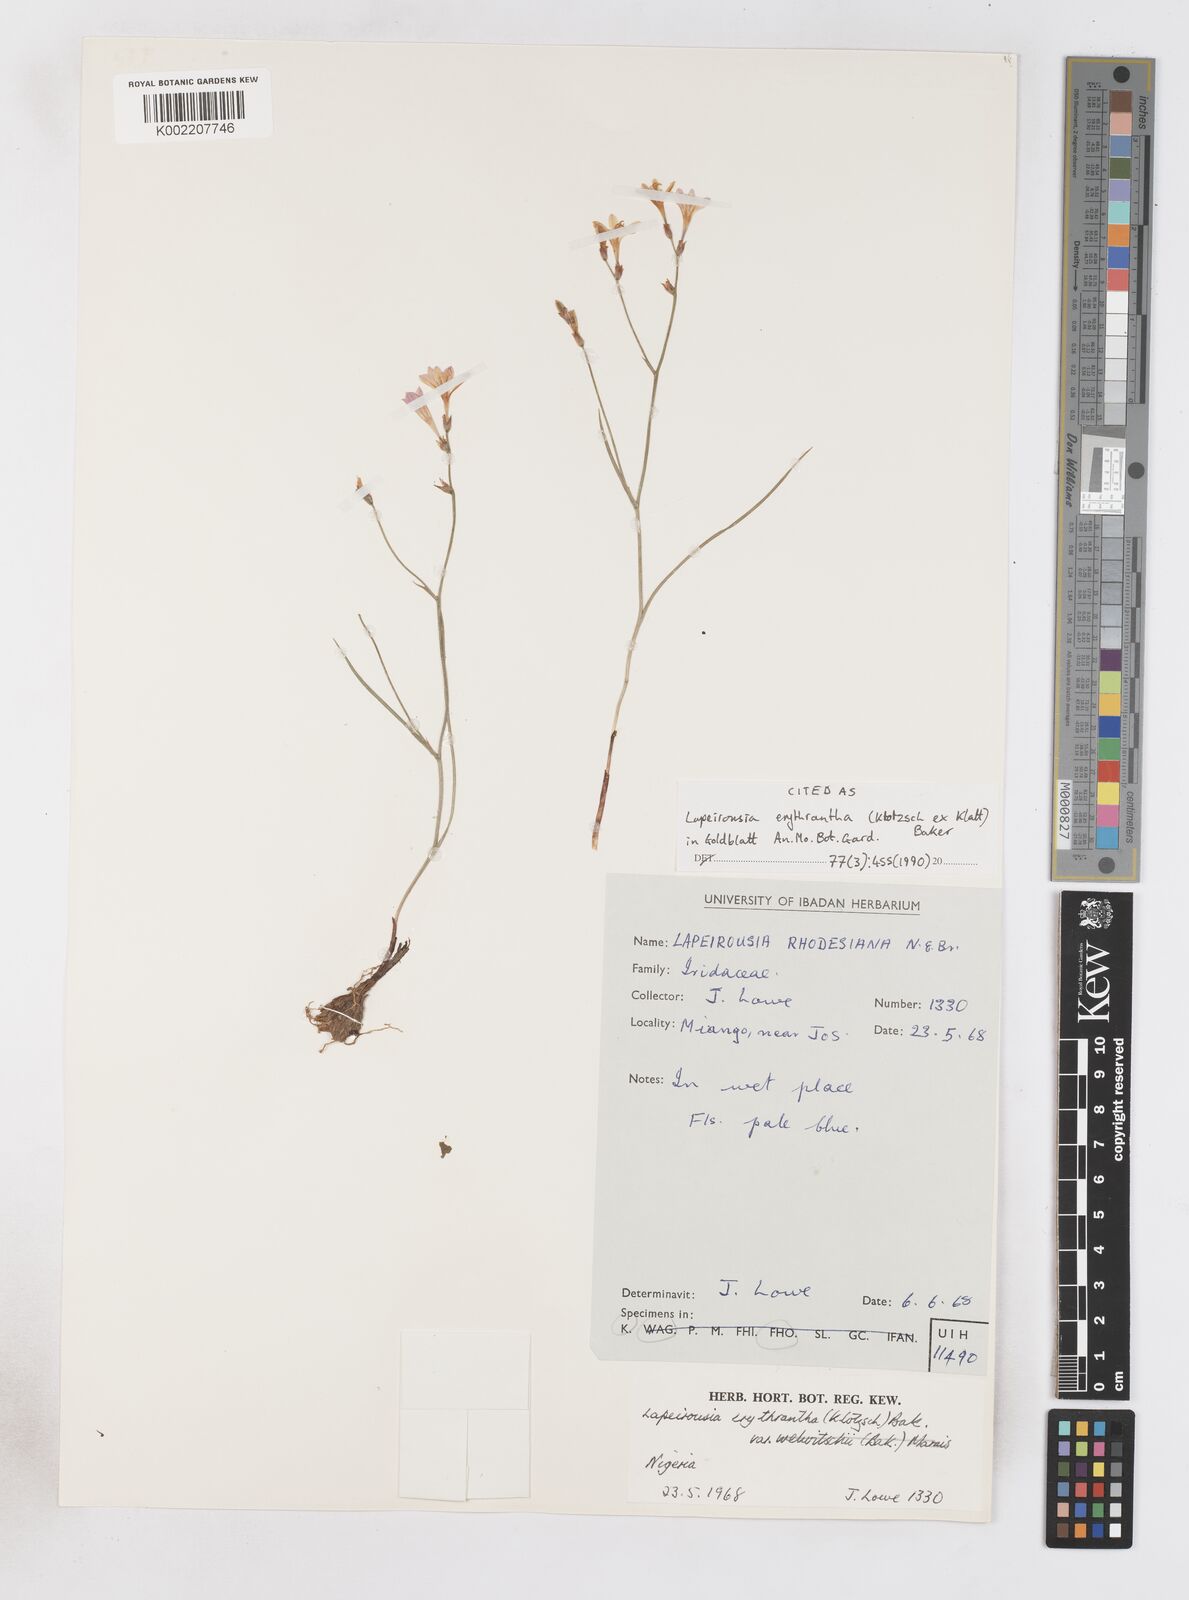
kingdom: Plantae
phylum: Tracheophyta
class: Liliopsida
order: Asparagales
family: Iridaceae
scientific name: Iridaceae
